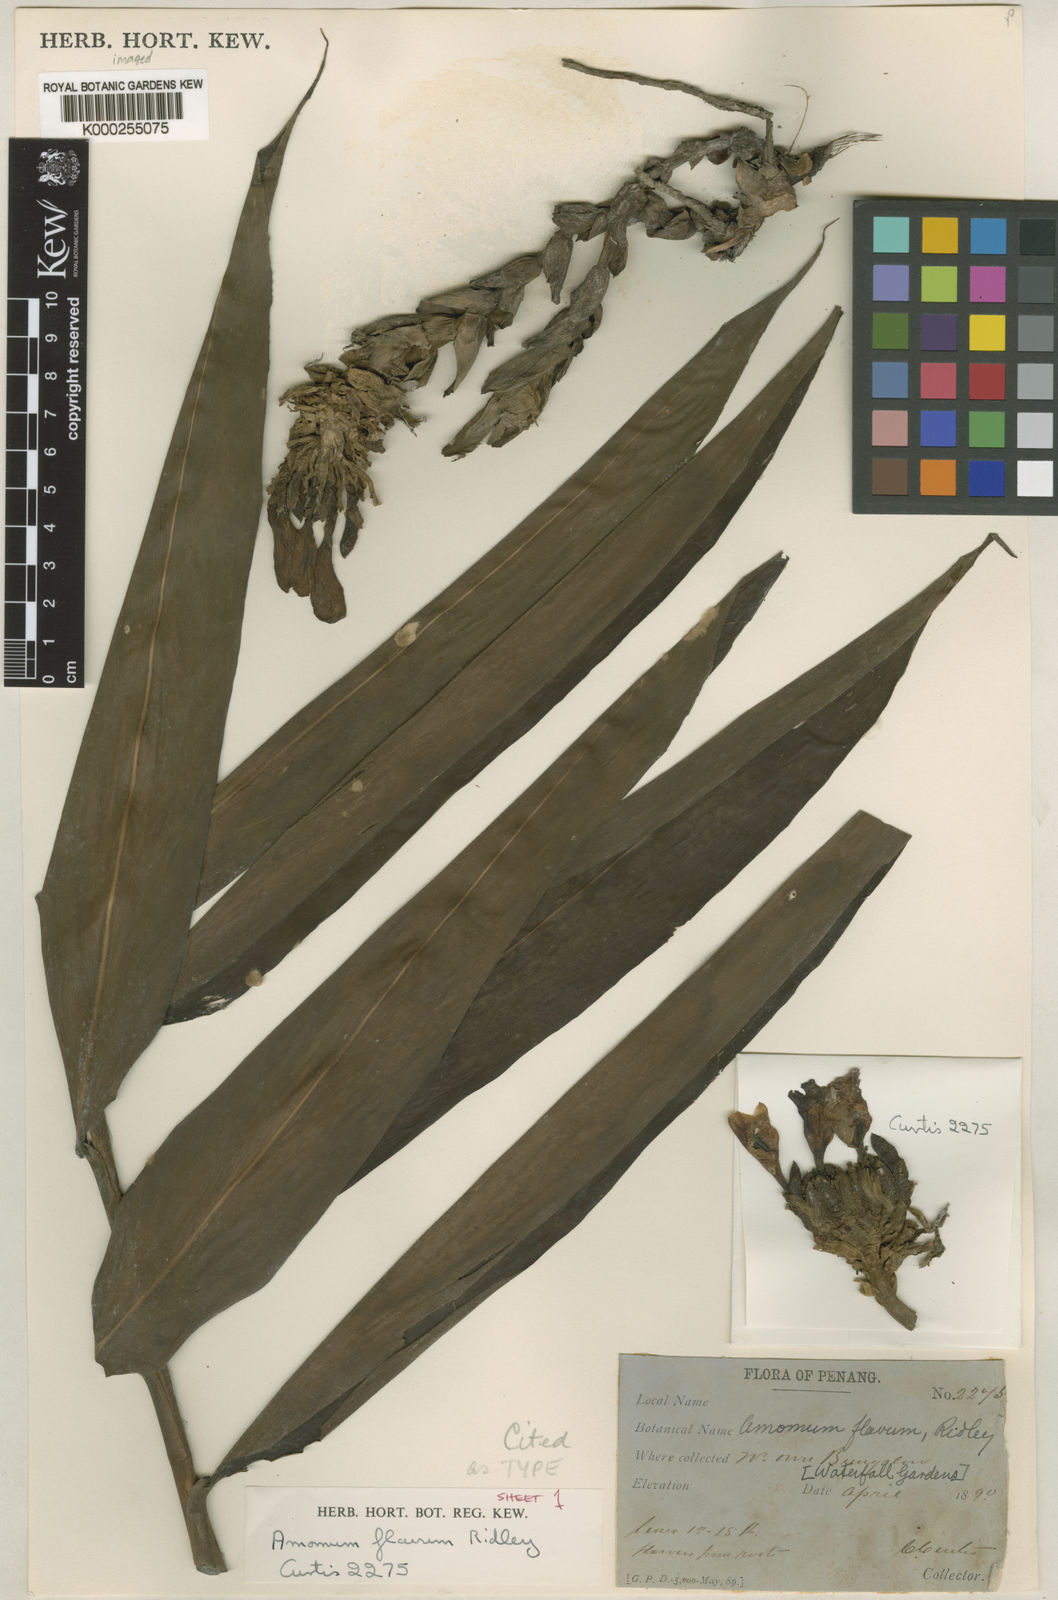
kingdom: Plantae
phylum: Tracheophyta
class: Liliopsida
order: Zingiberales
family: Zingiberaceae
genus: Meistera
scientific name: Meistera aculeata
